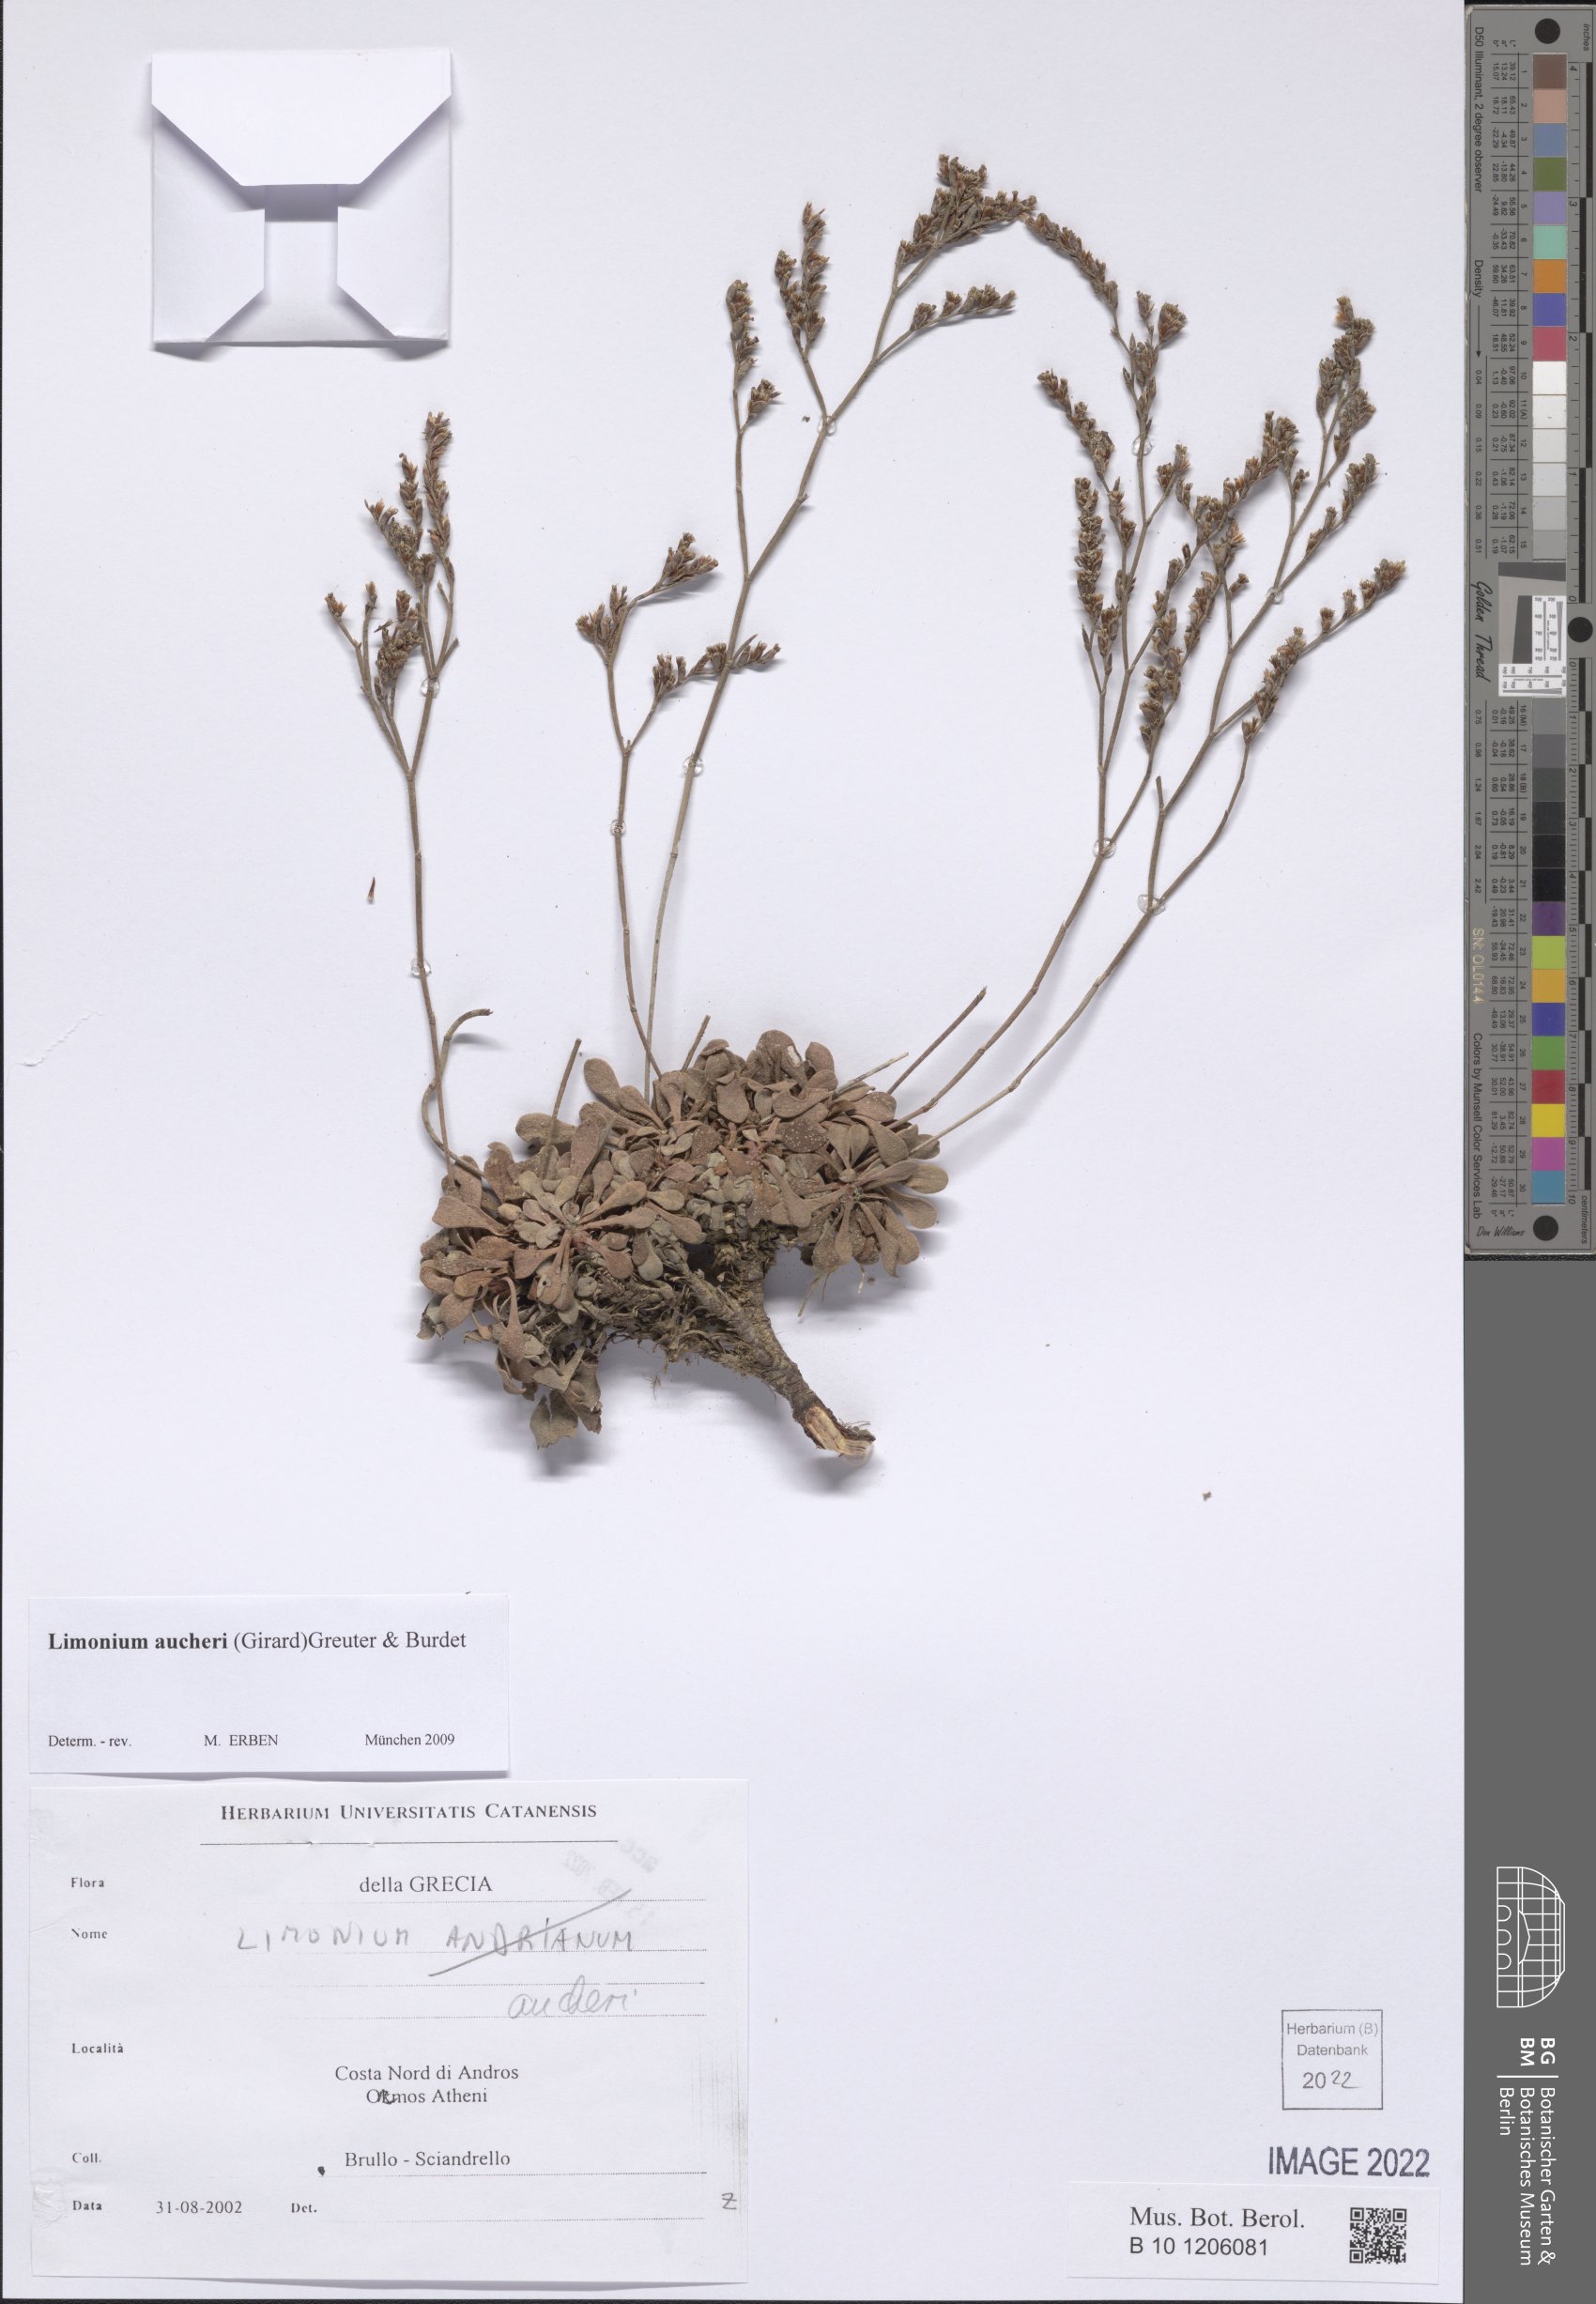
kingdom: Plantae
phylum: Tracheophyta
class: Magnoliopsida
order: Caryophyllales
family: Plumbaginaceae
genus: Limonium
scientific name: Limonium aucheri
